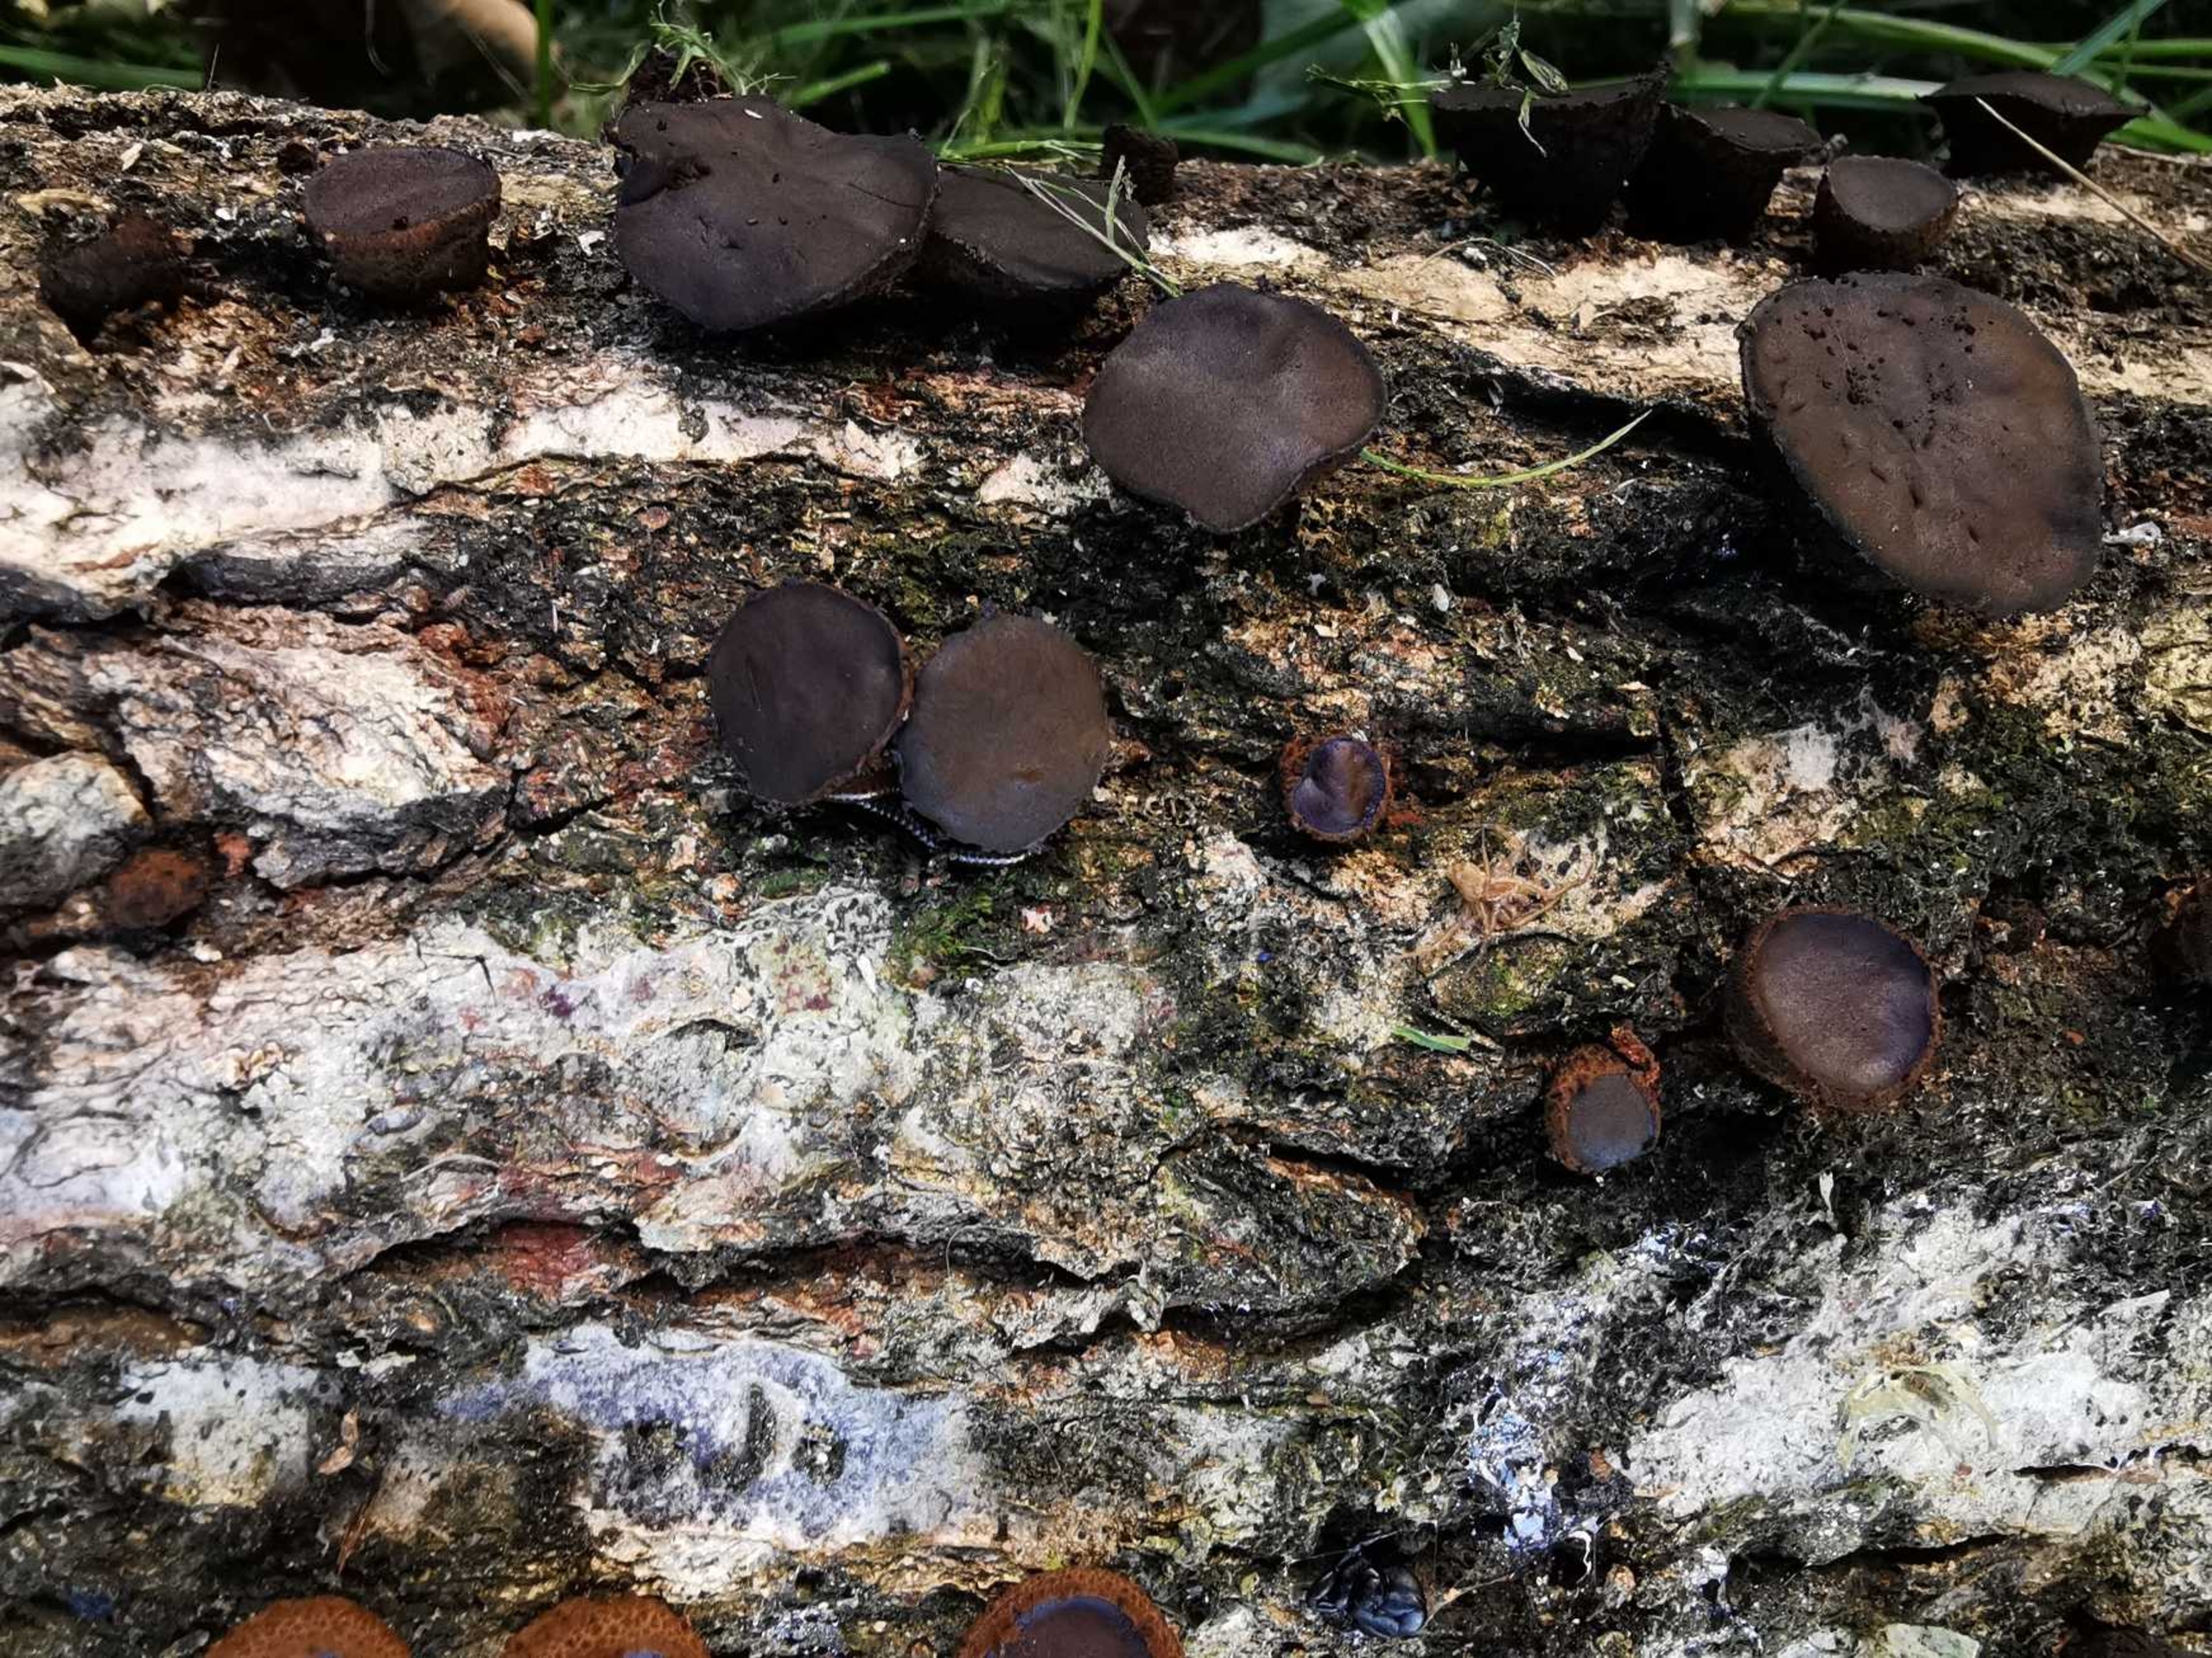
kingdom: Fungi
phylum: Ascomycota
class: Leotiomycetes
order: Phacidiales
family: Phacidiaceae
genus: Bulgaria
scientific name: Bulgaria inquinans
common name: Afsmittende topsvamp
